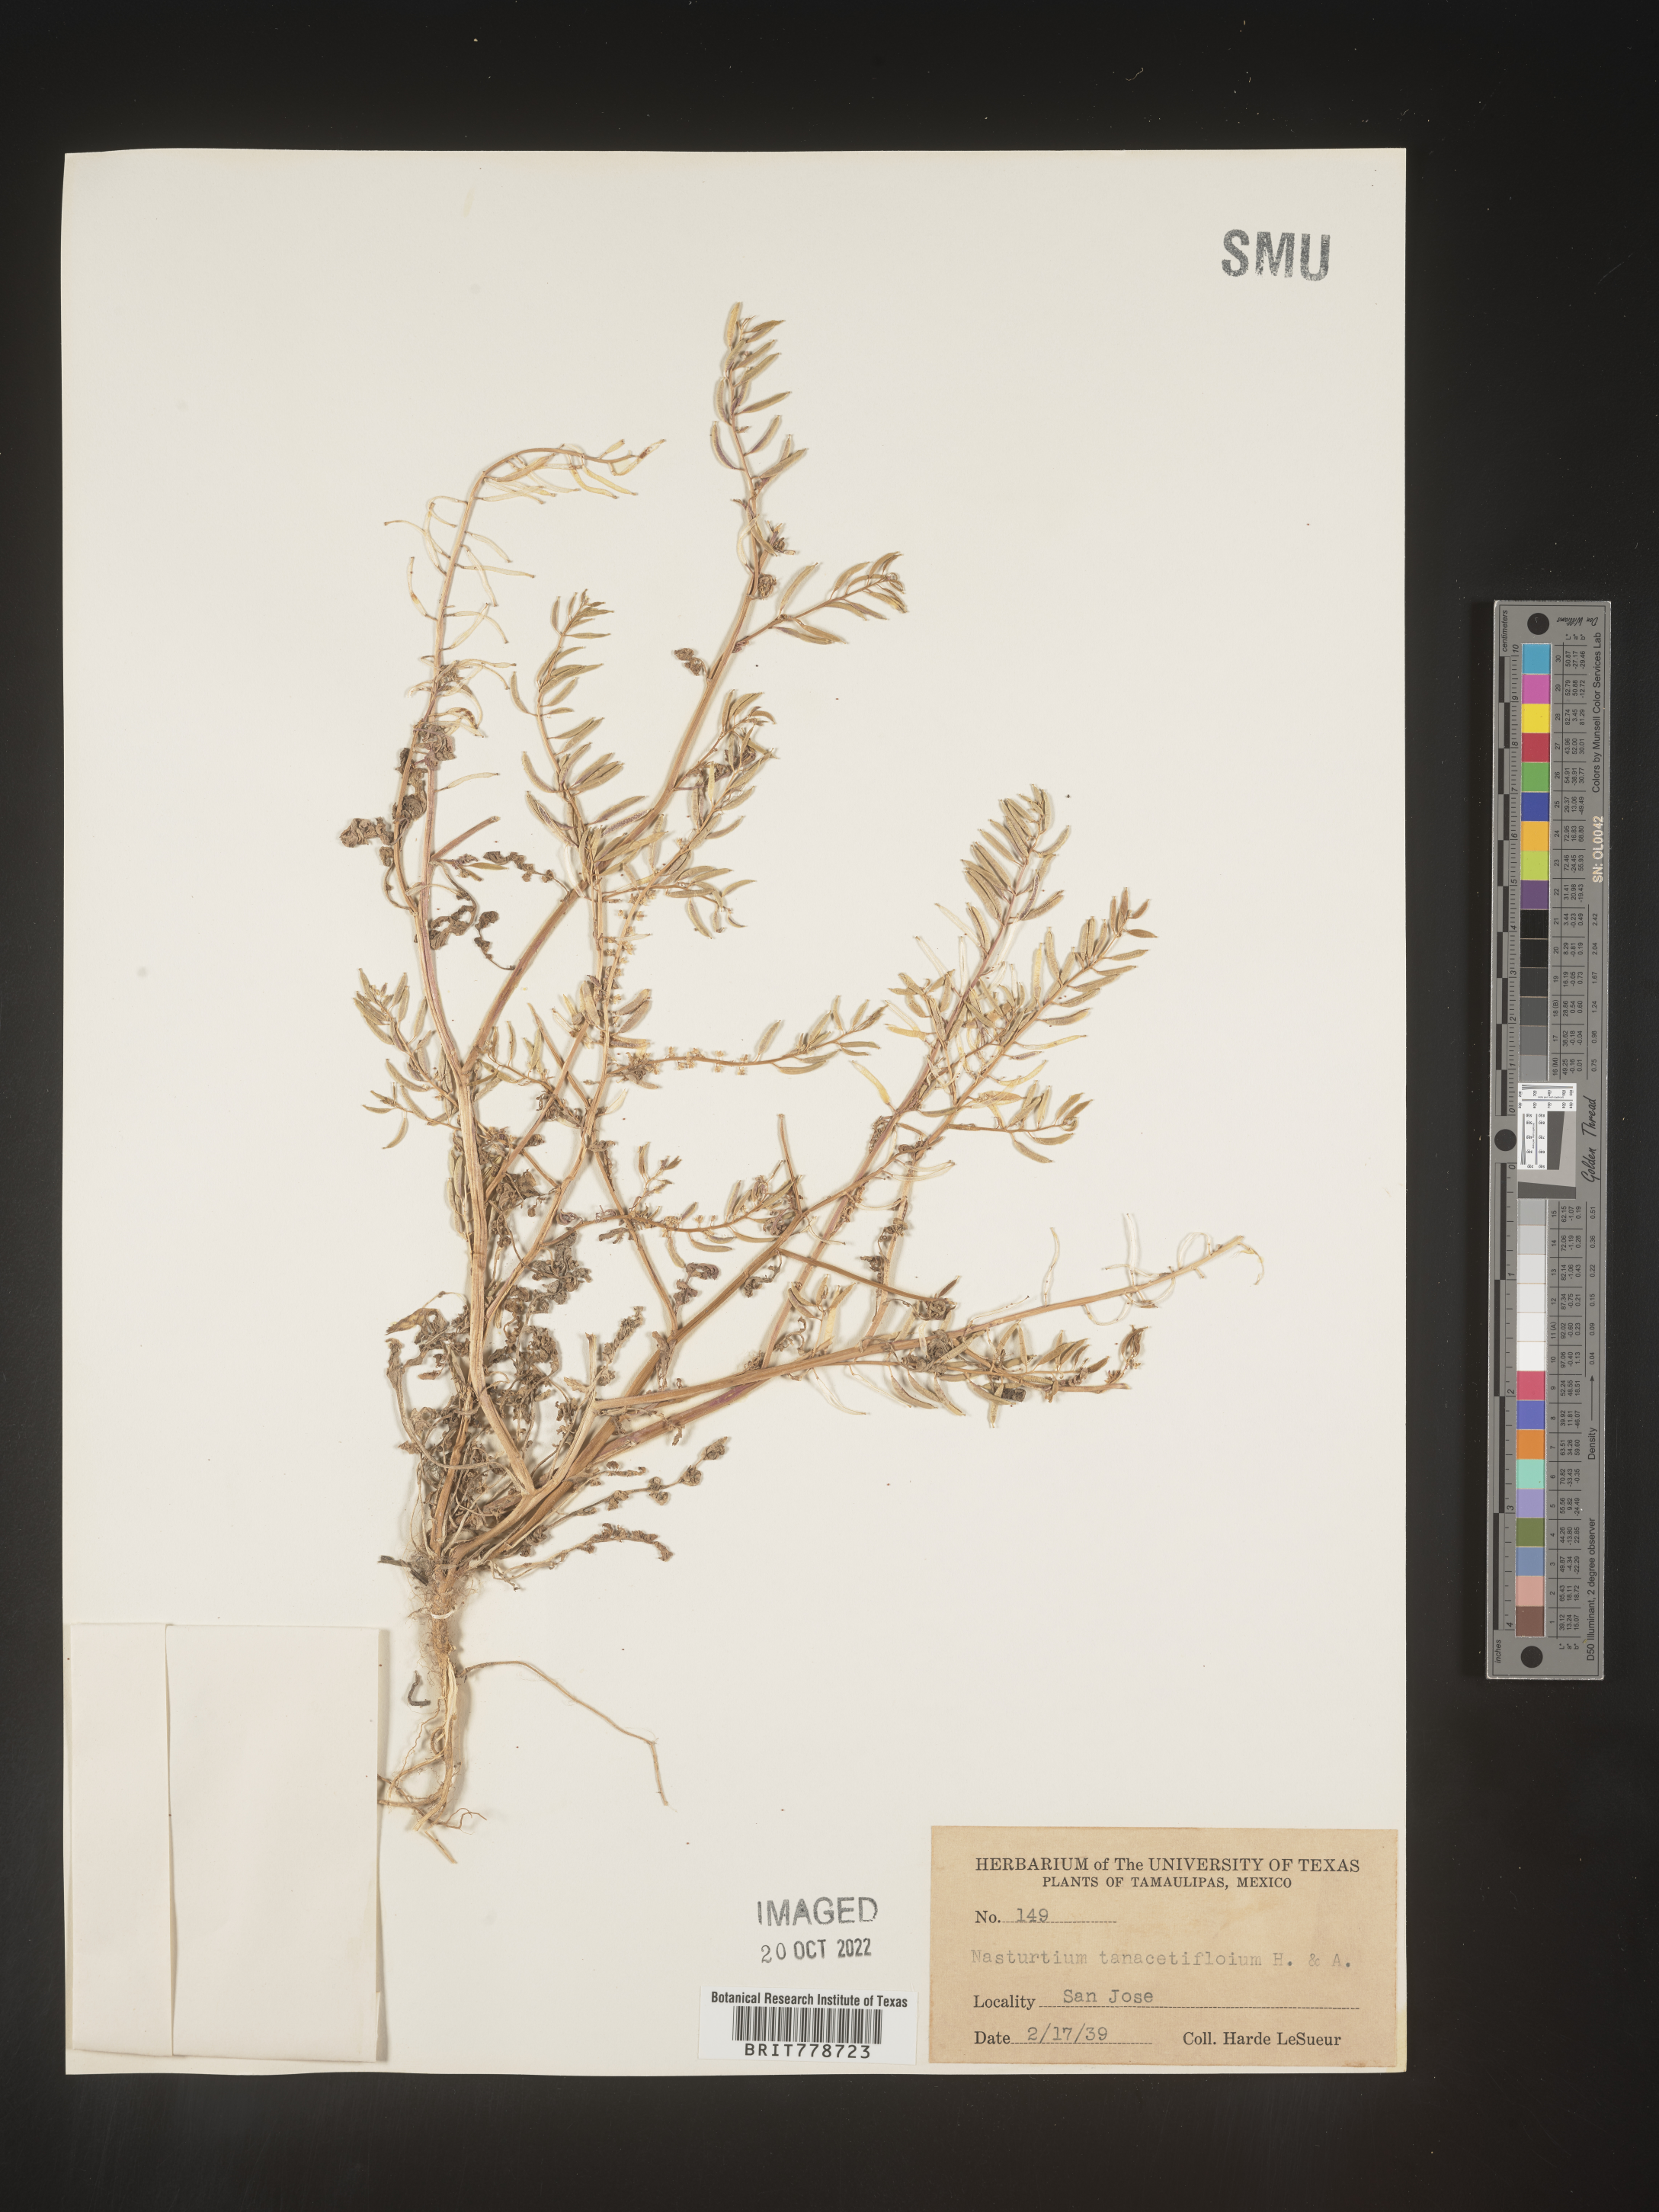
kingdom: Plantae
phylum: Tracheophyta
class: Magnoliopsida
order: Brassicales
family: Brassicaceae
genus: Rorippa
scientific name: Rorippa
